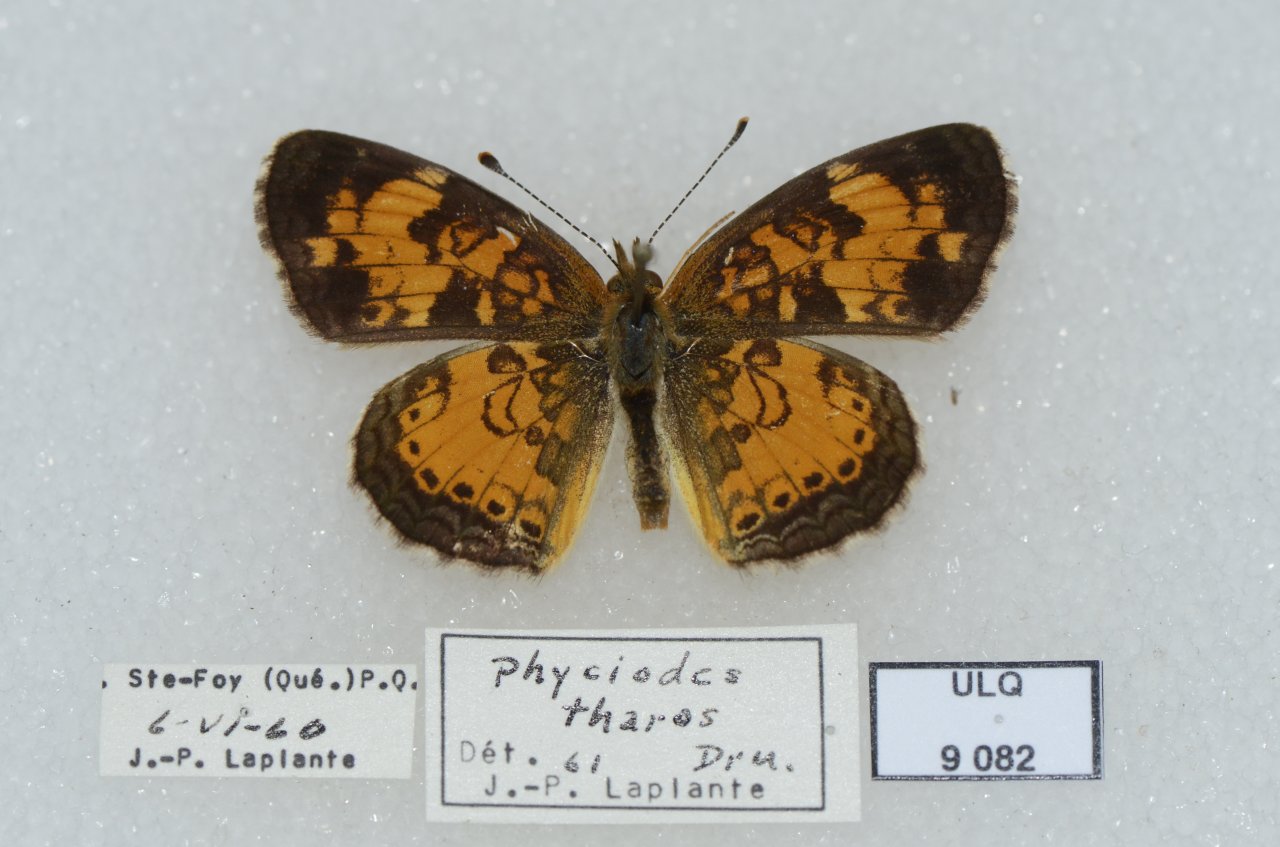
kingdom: Animalia
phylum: Arthropoda
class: Insecta
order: Lepidoptera
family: Nymphalidae
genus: Phyciodes
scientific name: Phyciodes tharos
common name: Northern Crescent
